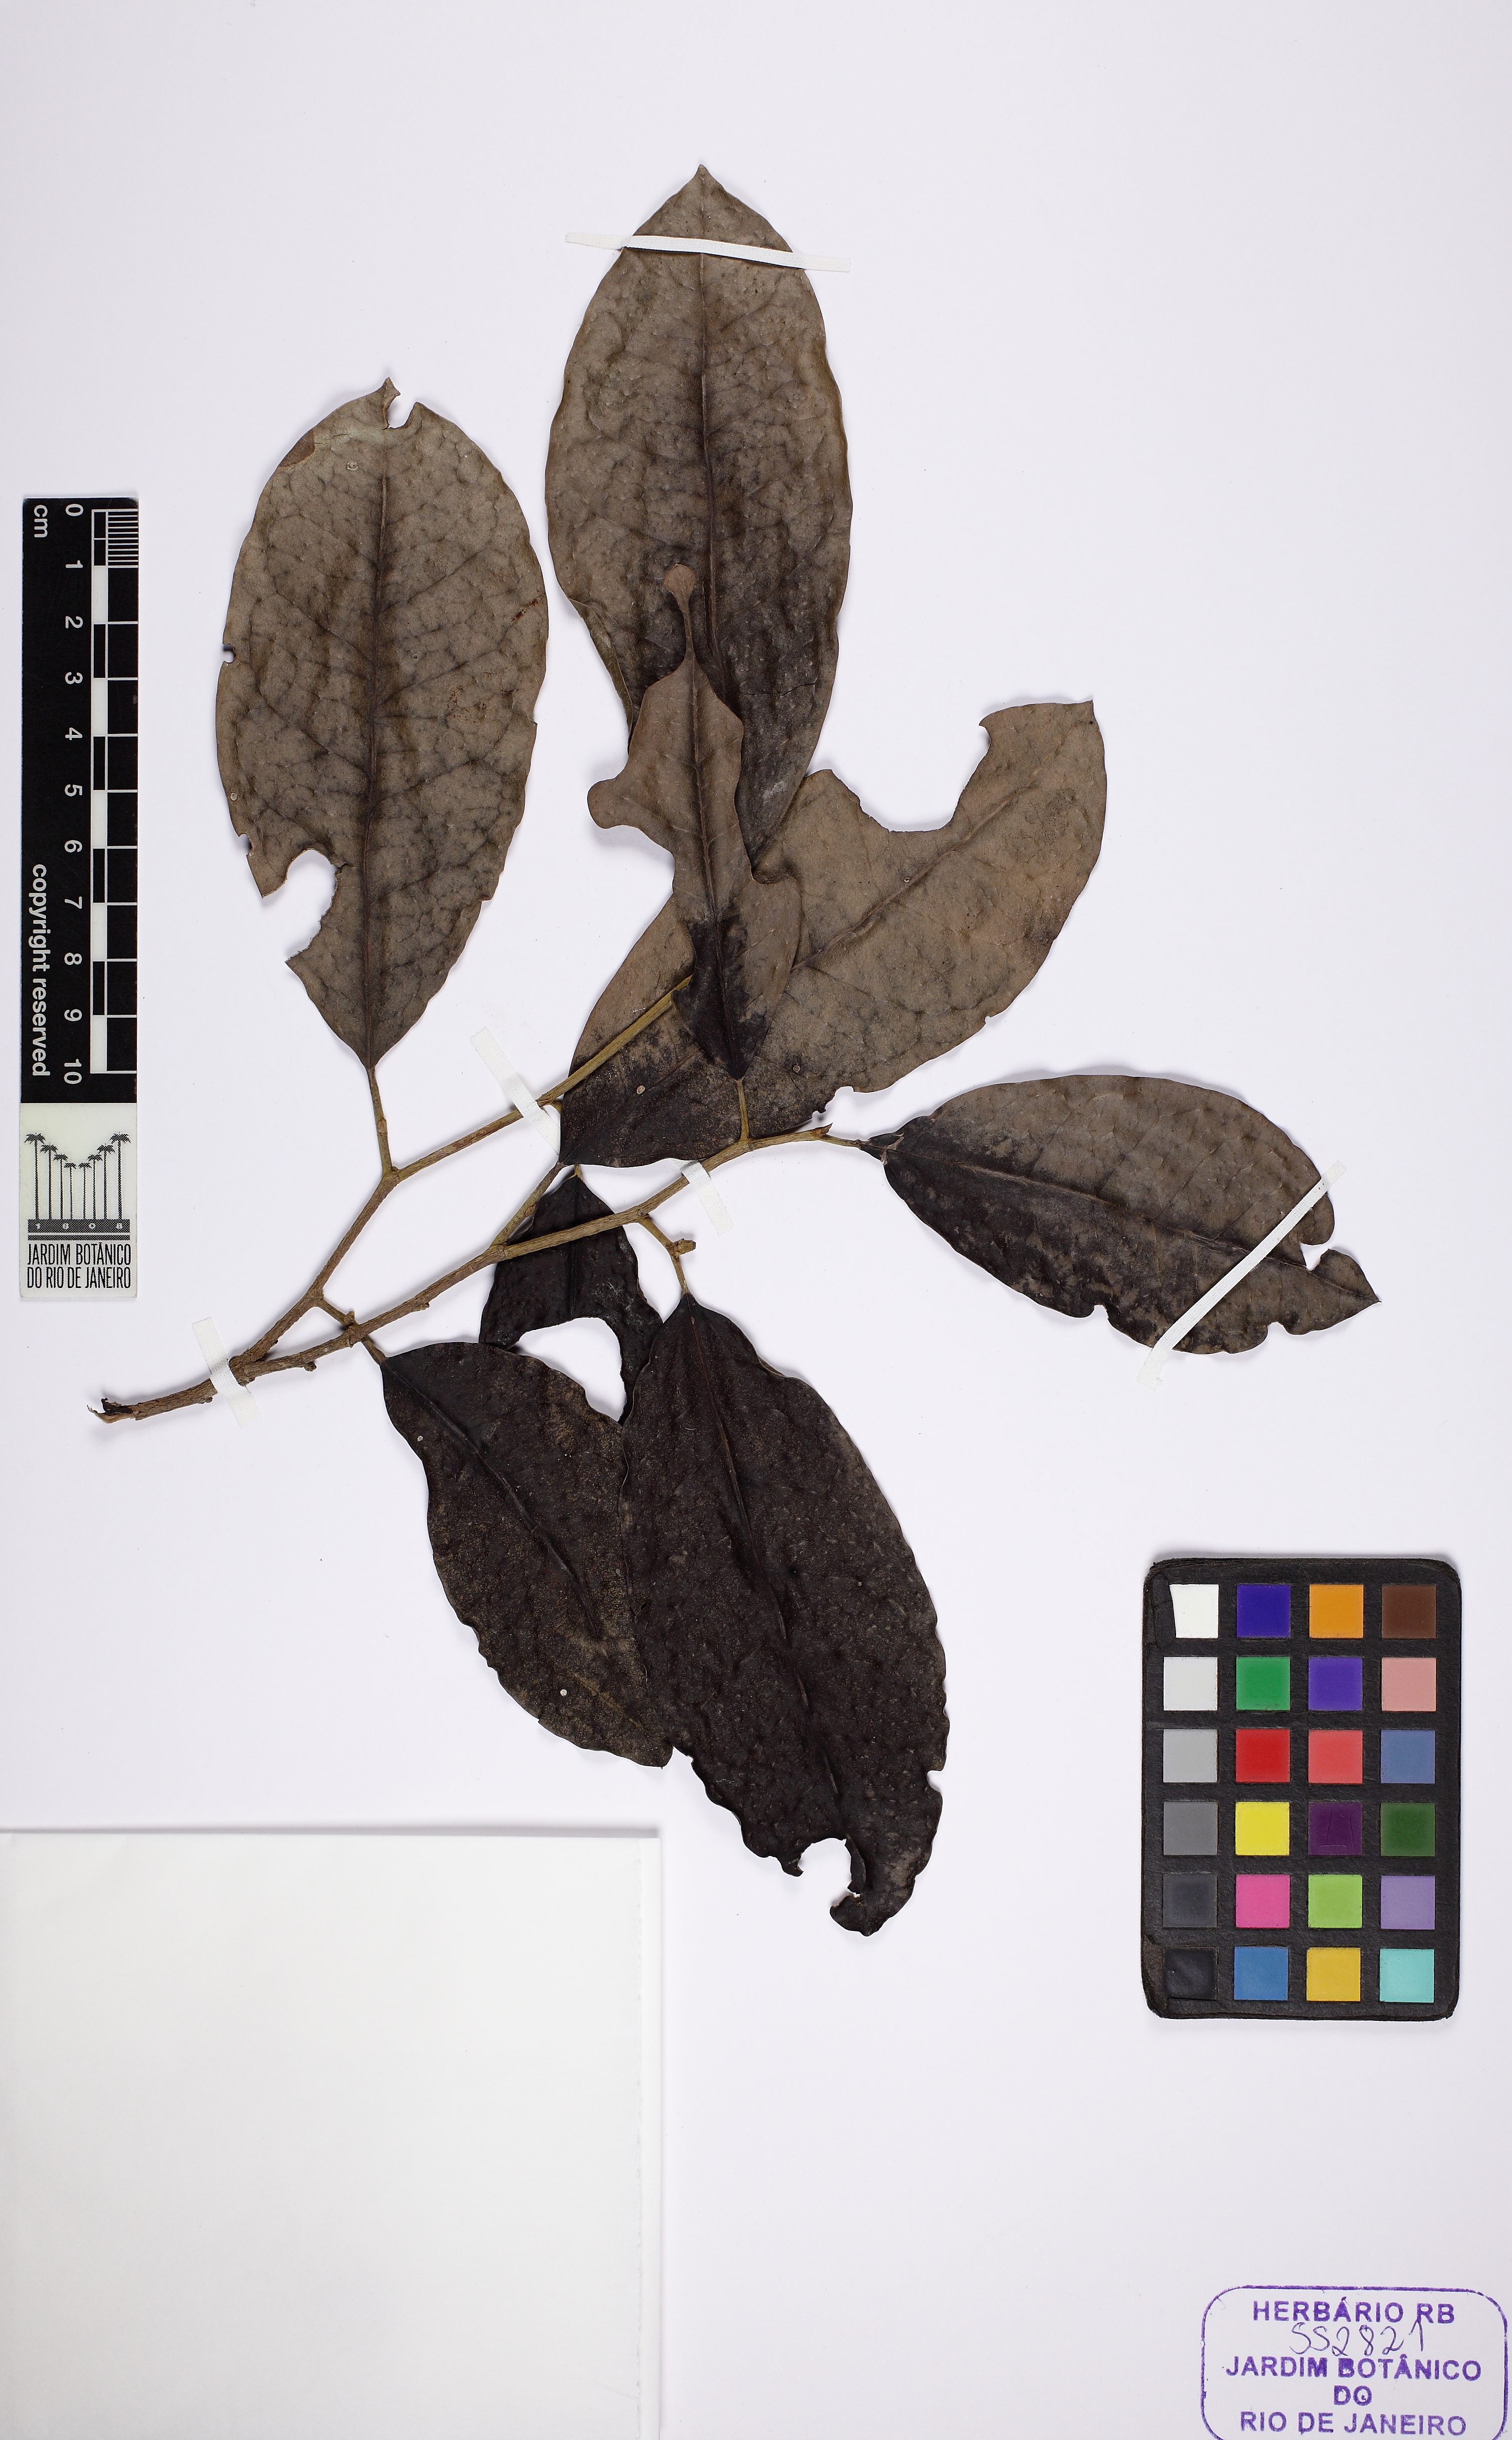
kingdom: Plantae
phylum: Tracheophyta
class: Magnoliopsida
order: Malpighiales
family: Dichapetalaceae
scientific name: Dichapetalaceae
